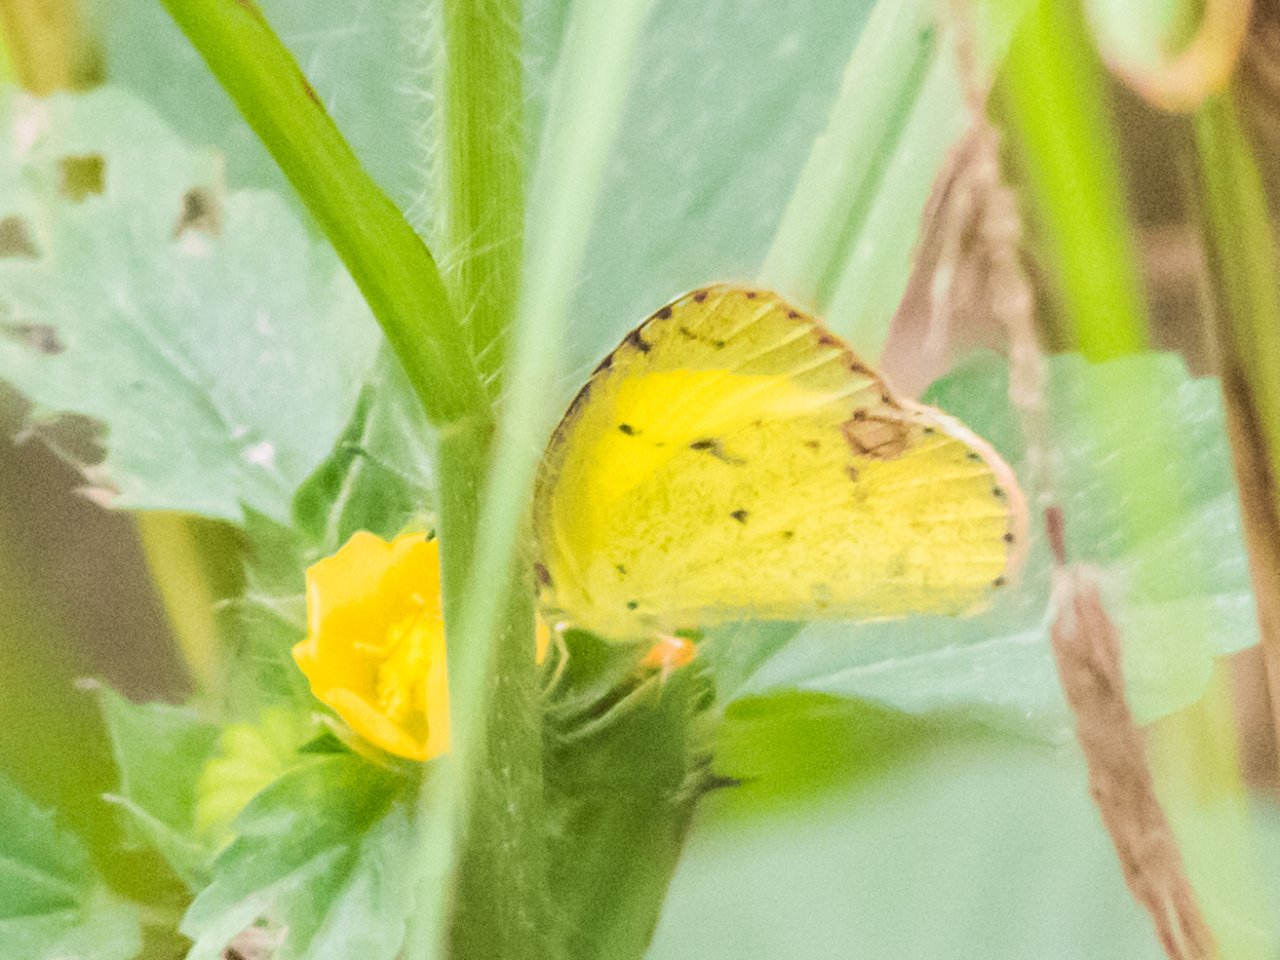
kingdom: Animalia
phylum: Arthropoda
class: Insecta
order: Lepidoptera
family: Pieridae
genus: Pyrisitia
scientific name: Pyrisitia lisa
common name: Little Yellow
